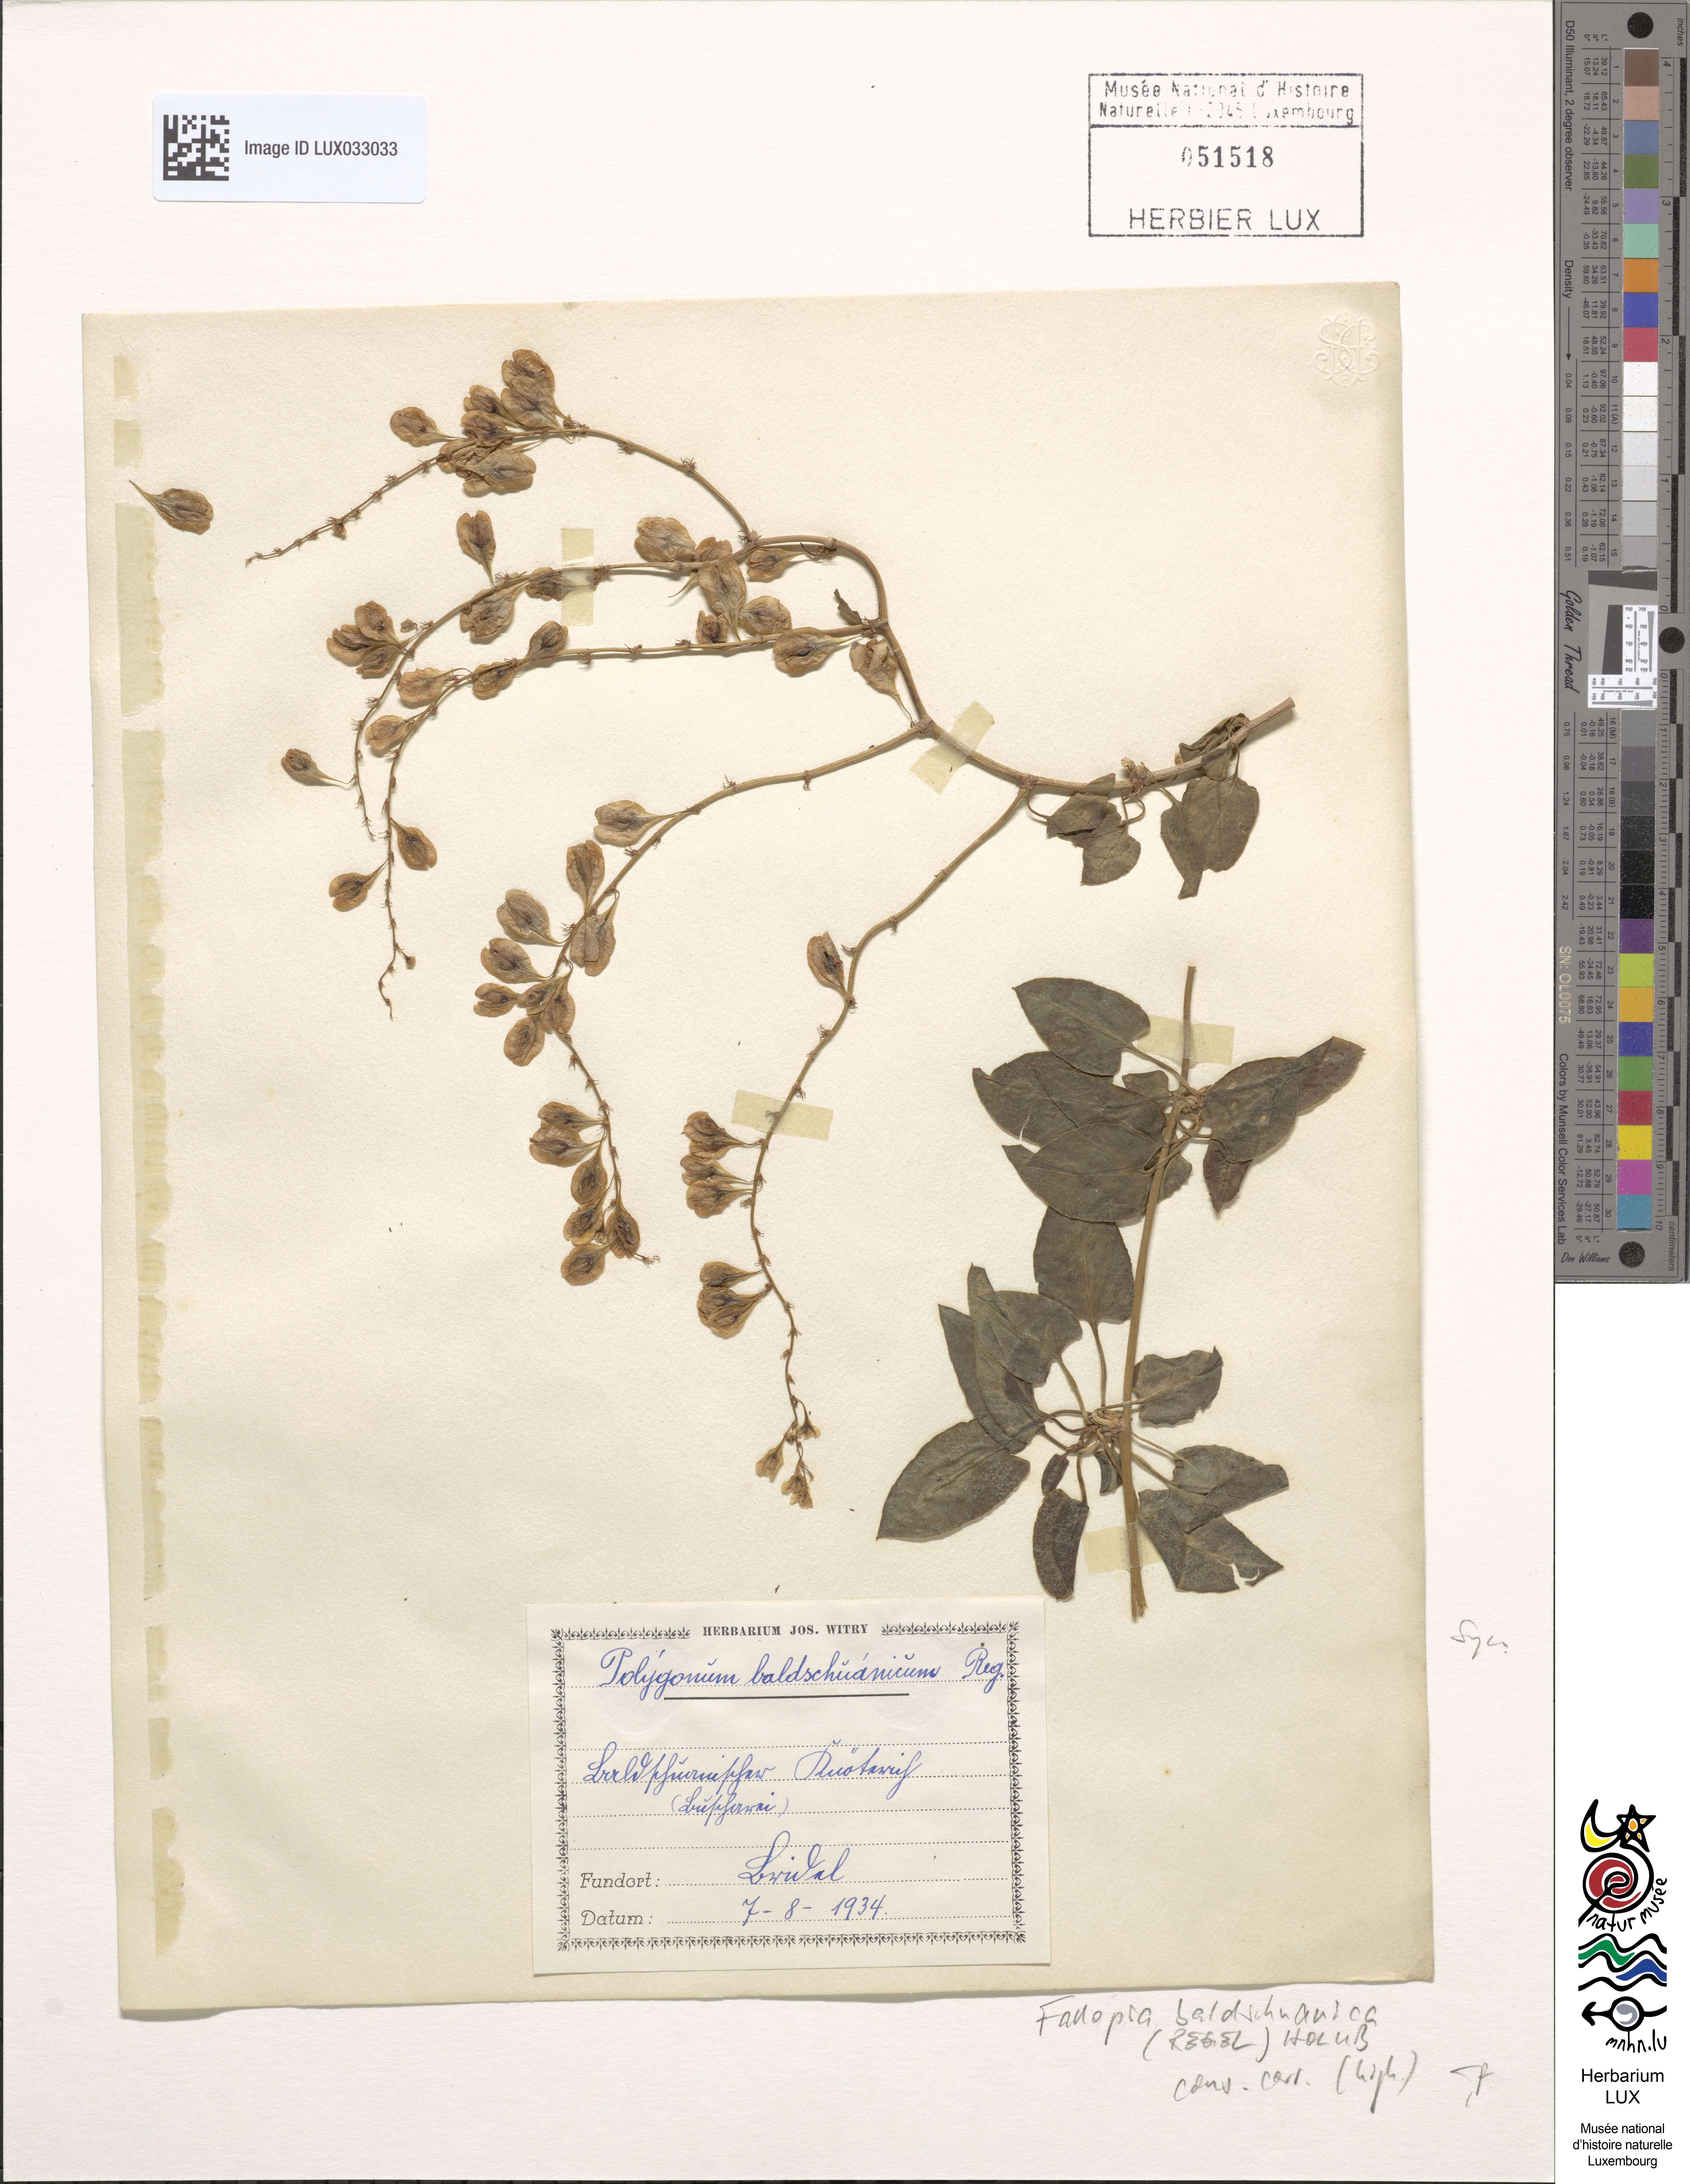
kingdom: Plantae
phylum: Tracheophyta
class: Magnoliopsida
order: Caryophyllales
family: Polygonaceae
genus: Fallopia
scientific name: Fallopia baldschuanica
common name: Russian-vine
